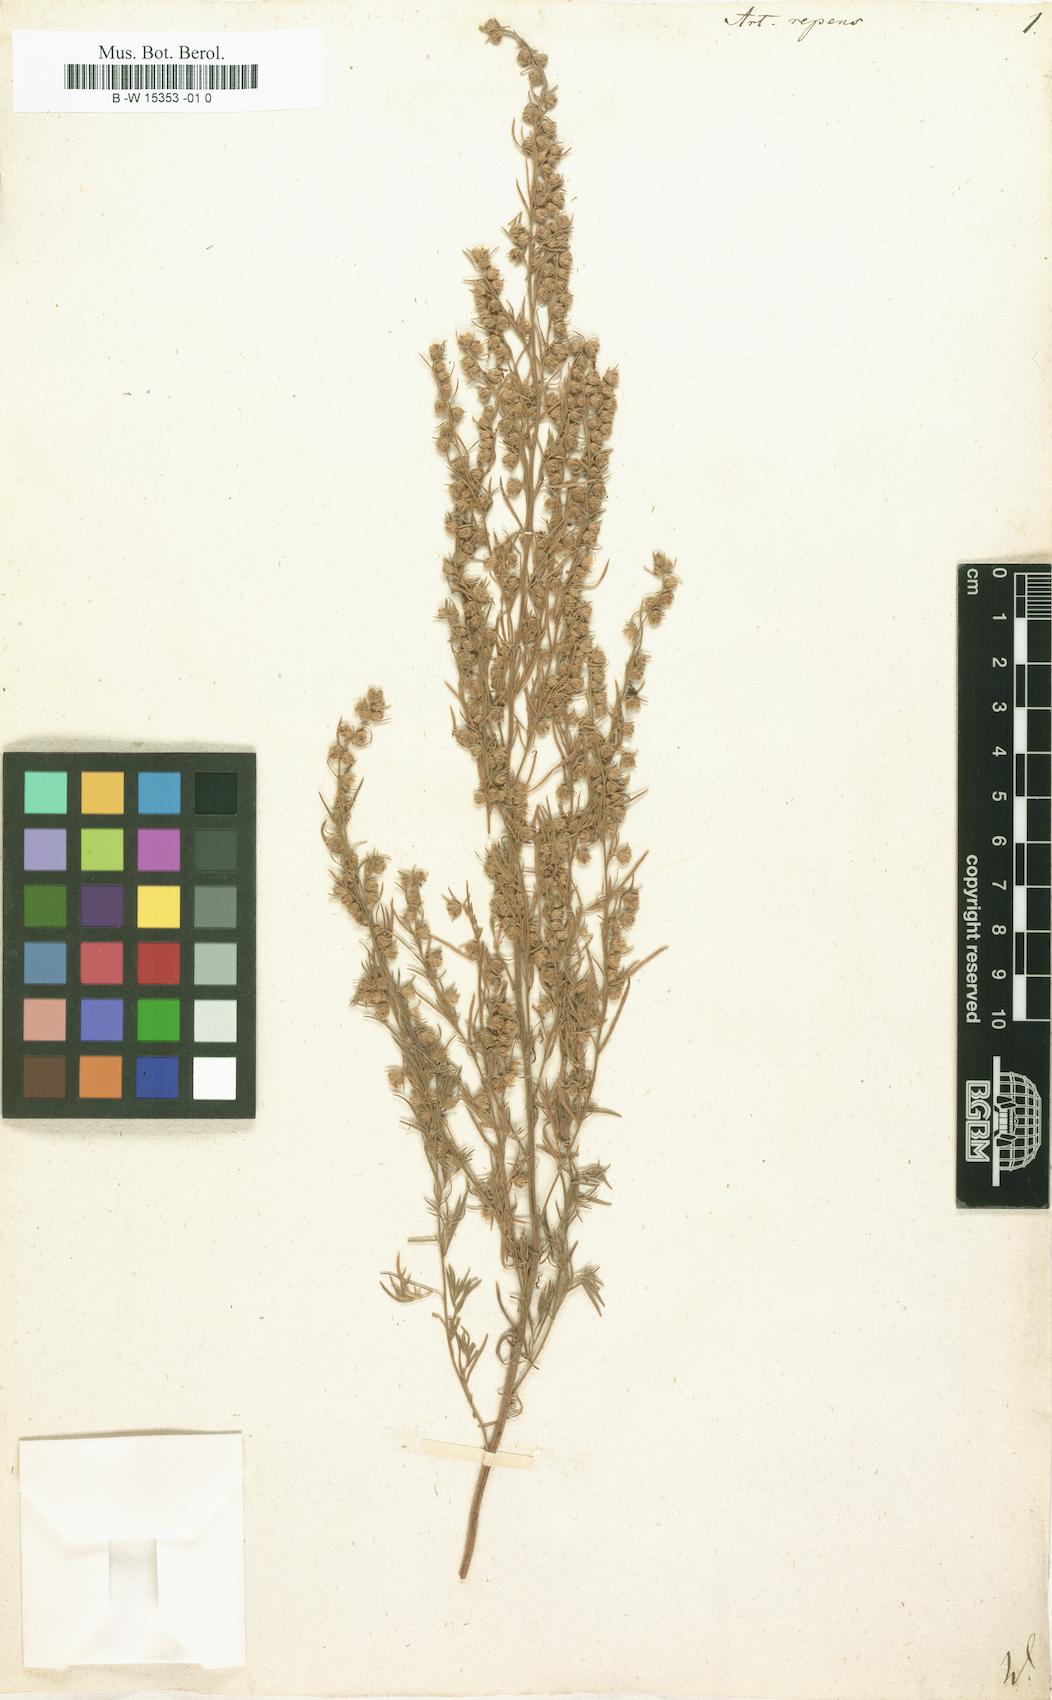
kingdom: Plantae
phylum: Tracheophyta
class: Magnoliopsida
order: Asterales
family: Asteraceae
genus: Artemisia
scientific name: Artemisia repens
